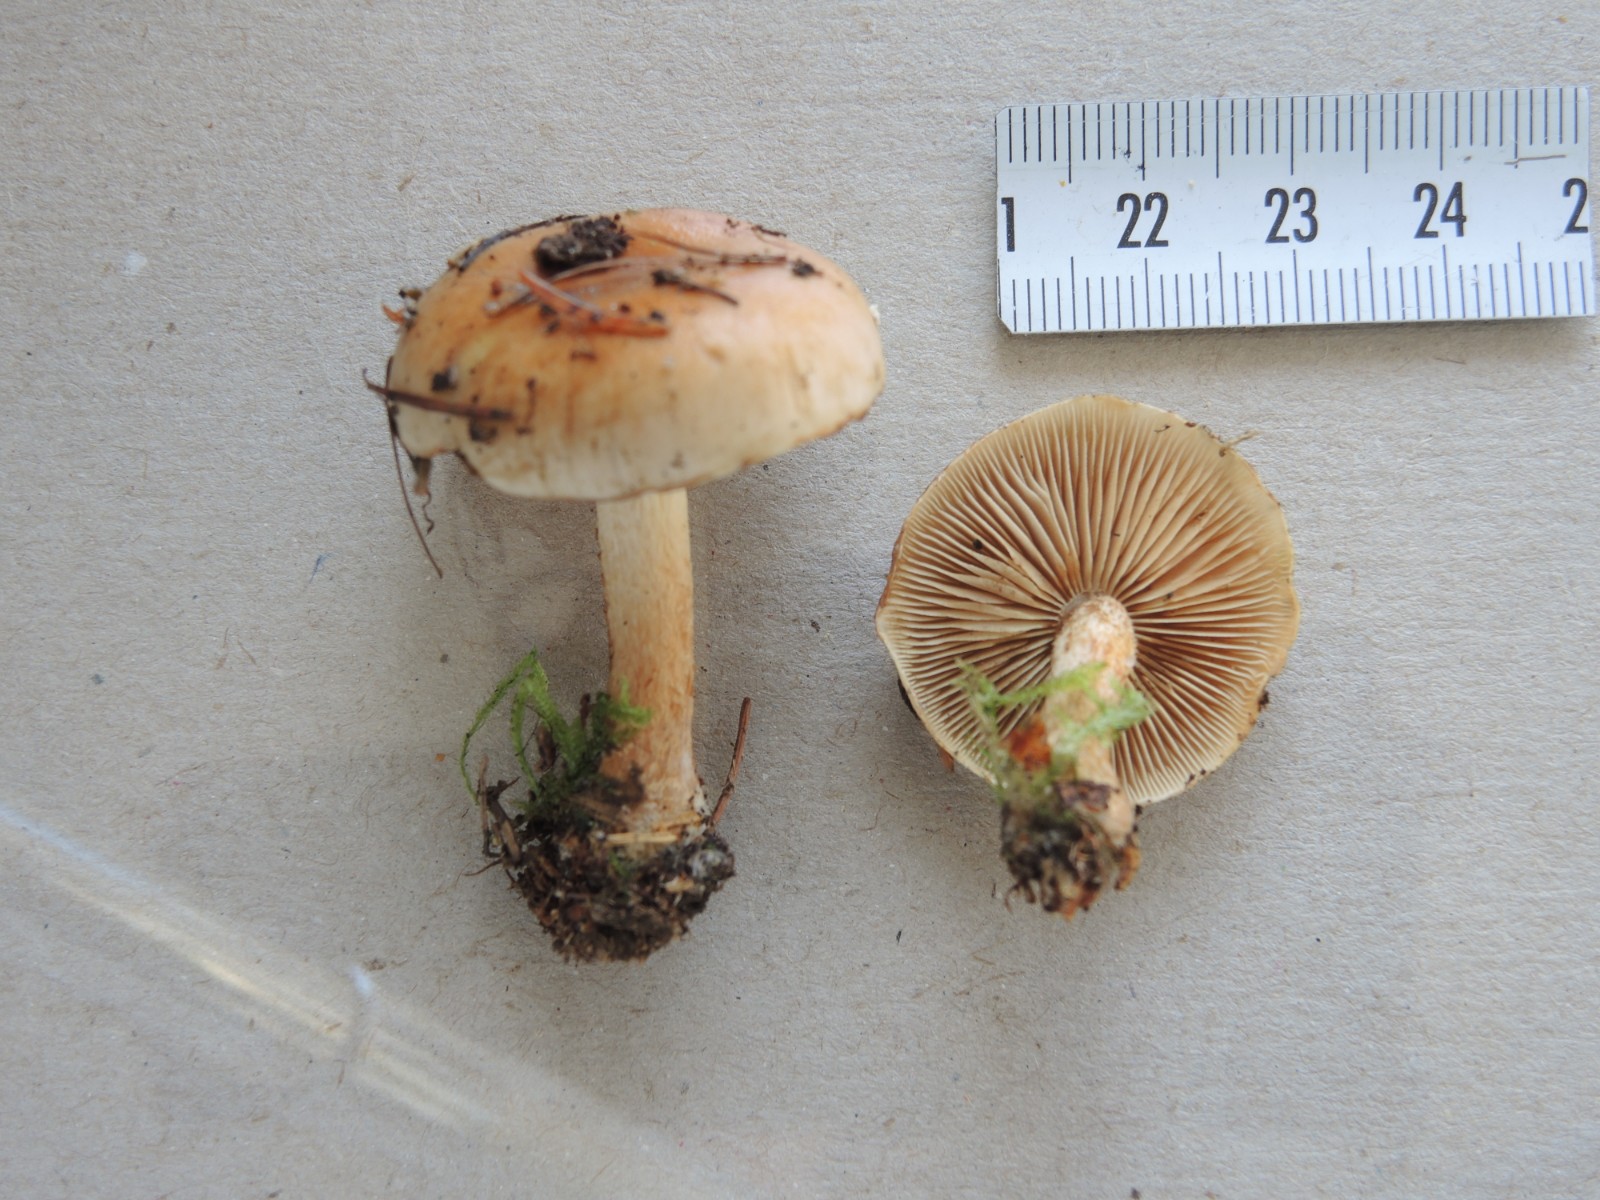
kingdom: Fungi
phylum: Basidiomycota
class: Agaricomycetes
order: Agaricales
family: Strophariaceae
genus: Pholiota
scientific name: Pholiota mixta
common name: nåle-skælhat
